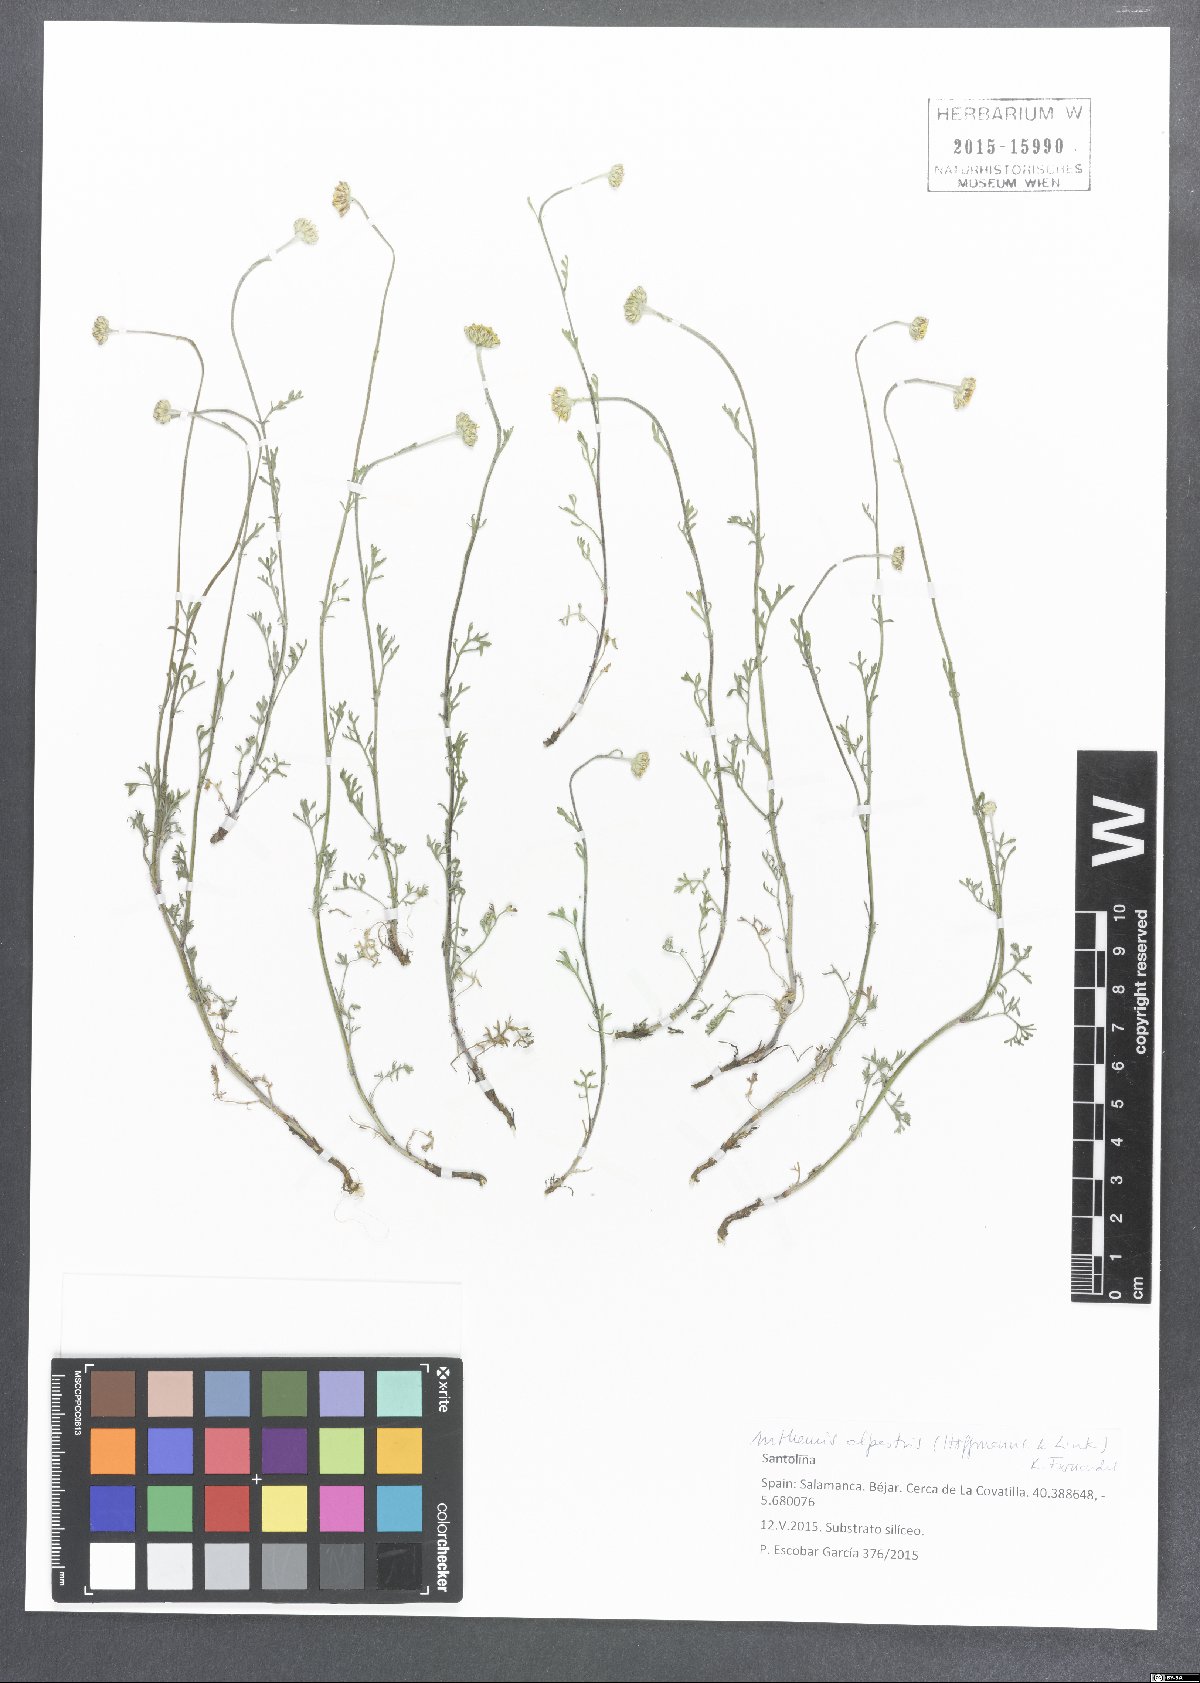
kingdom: Plantae
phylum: Tracheophyta
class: Magnoliopsida
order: Asterales
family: Asteraceae
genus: Anthemis
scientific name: Anthemis alpestris
